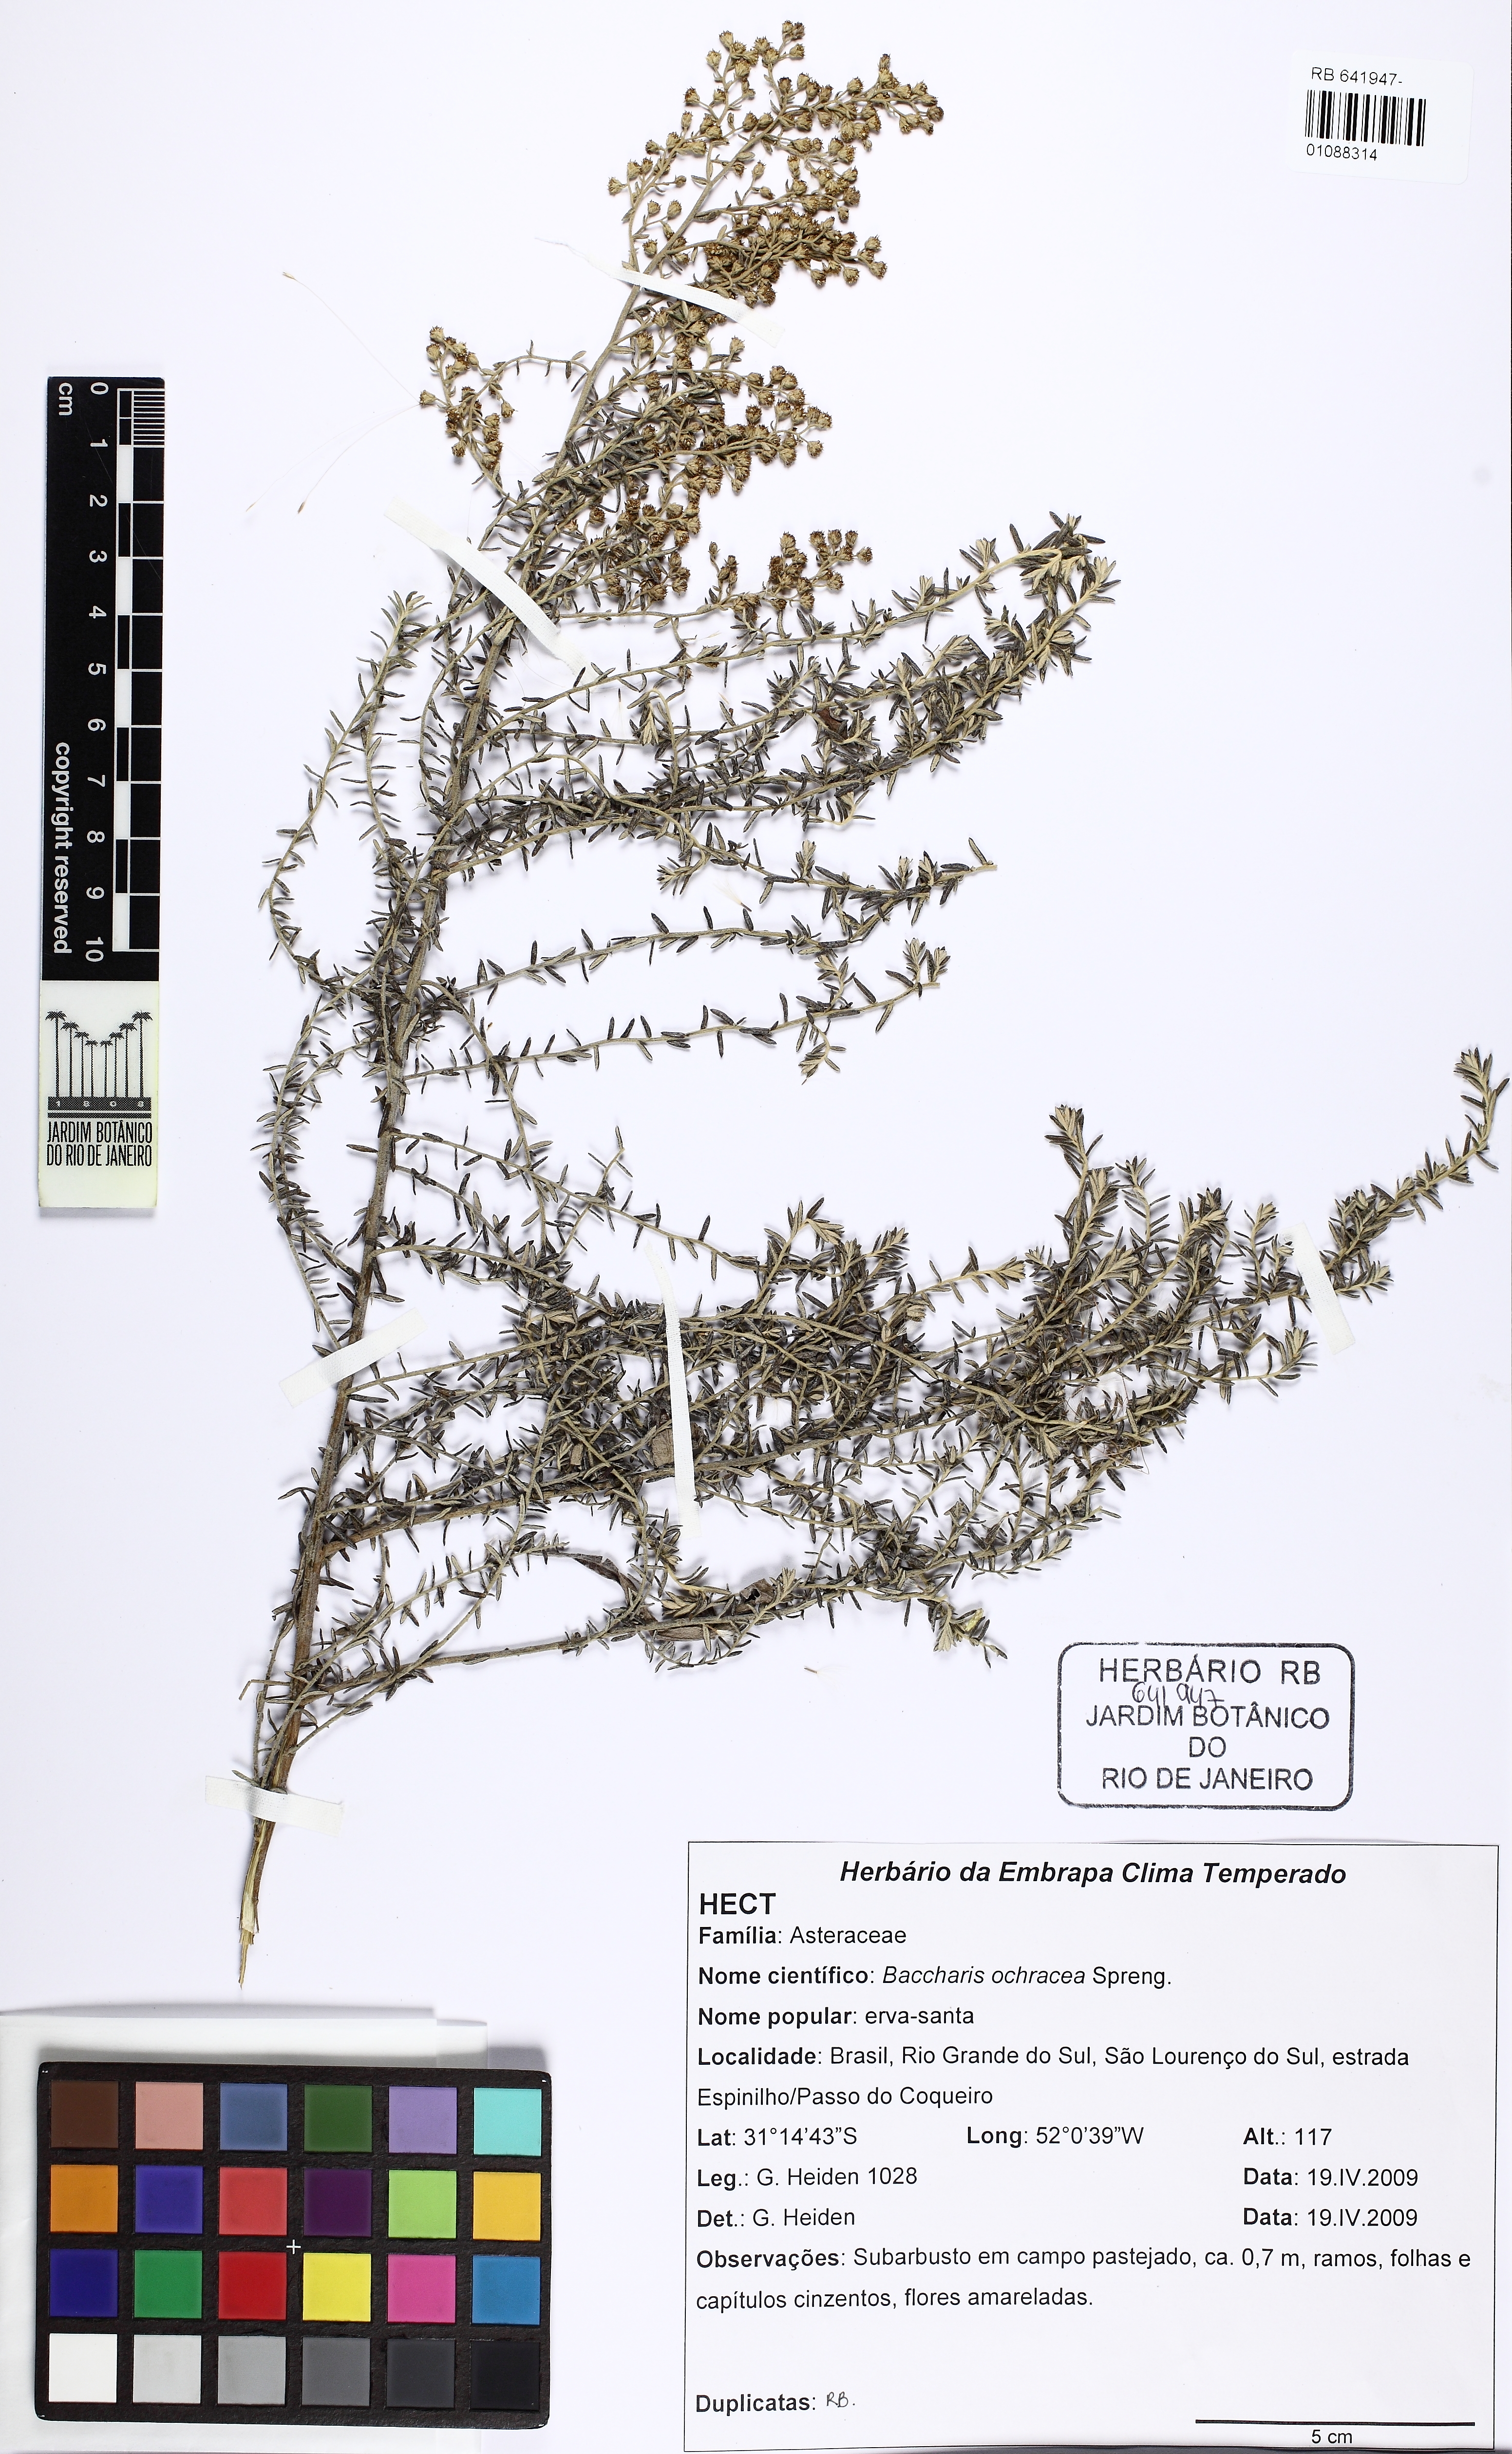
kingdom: Plantae
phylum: Tracheophyta
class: Magnoliopsida
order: Asterales
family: Asteraceae
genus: Baccharis
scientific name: Baccharis ochracea
